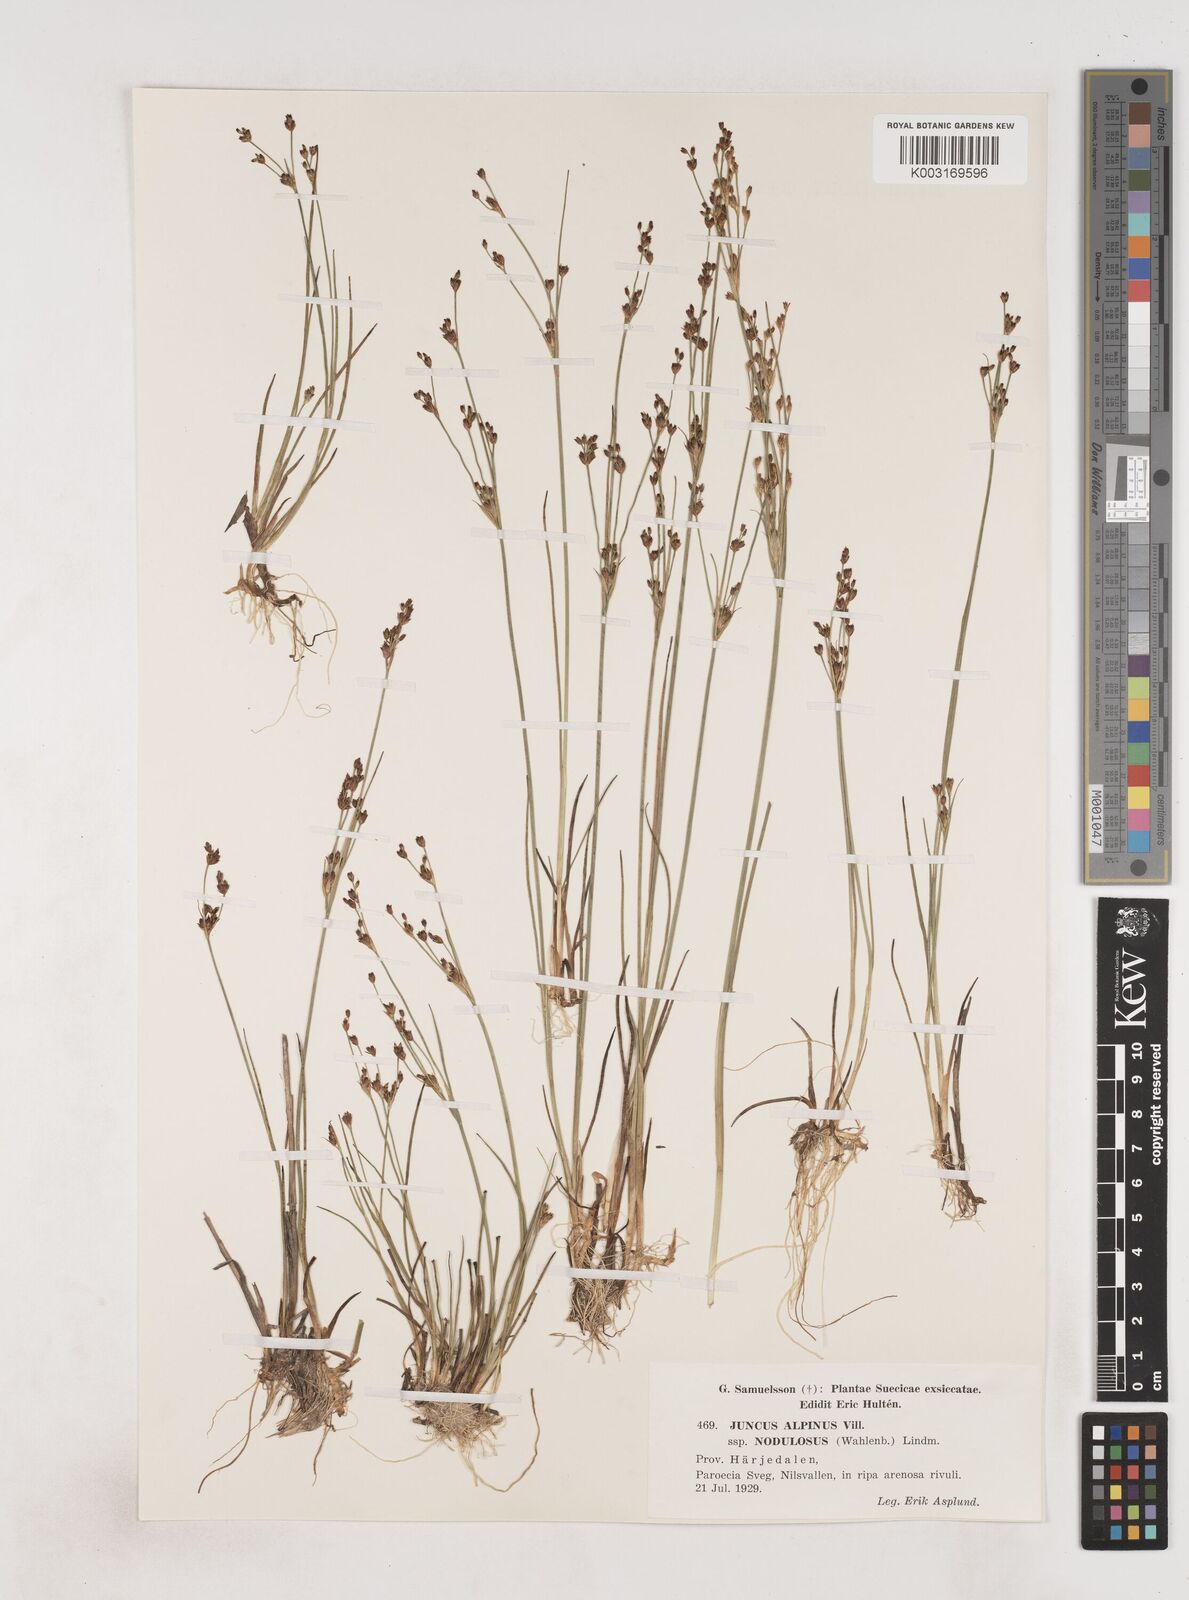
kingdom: Plantae
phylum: Tracheophyta
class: Liliopsida
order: Poales
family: Juncaceae
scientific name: Juncaceae
